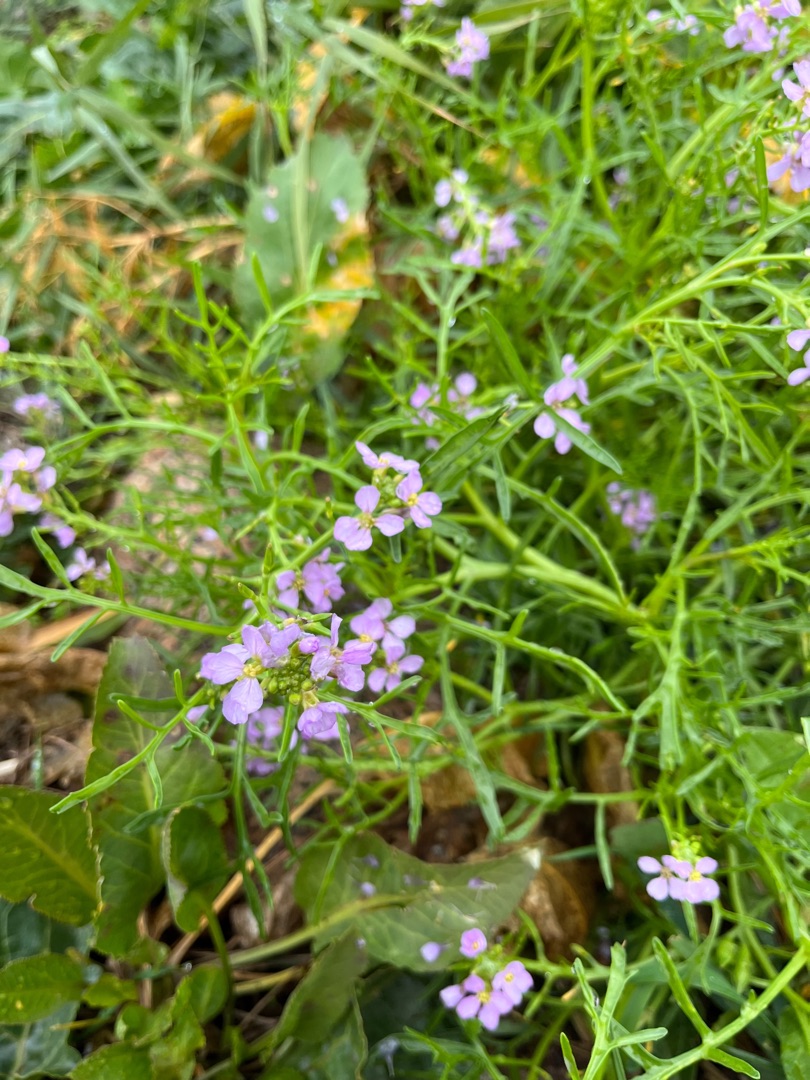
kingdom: Plantae
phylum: Tracheophyta
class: Magnoliopsida
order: Brassicales
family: Brassicaceae
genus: Cakile
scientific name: Cakile maritima
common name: Strandsennep
